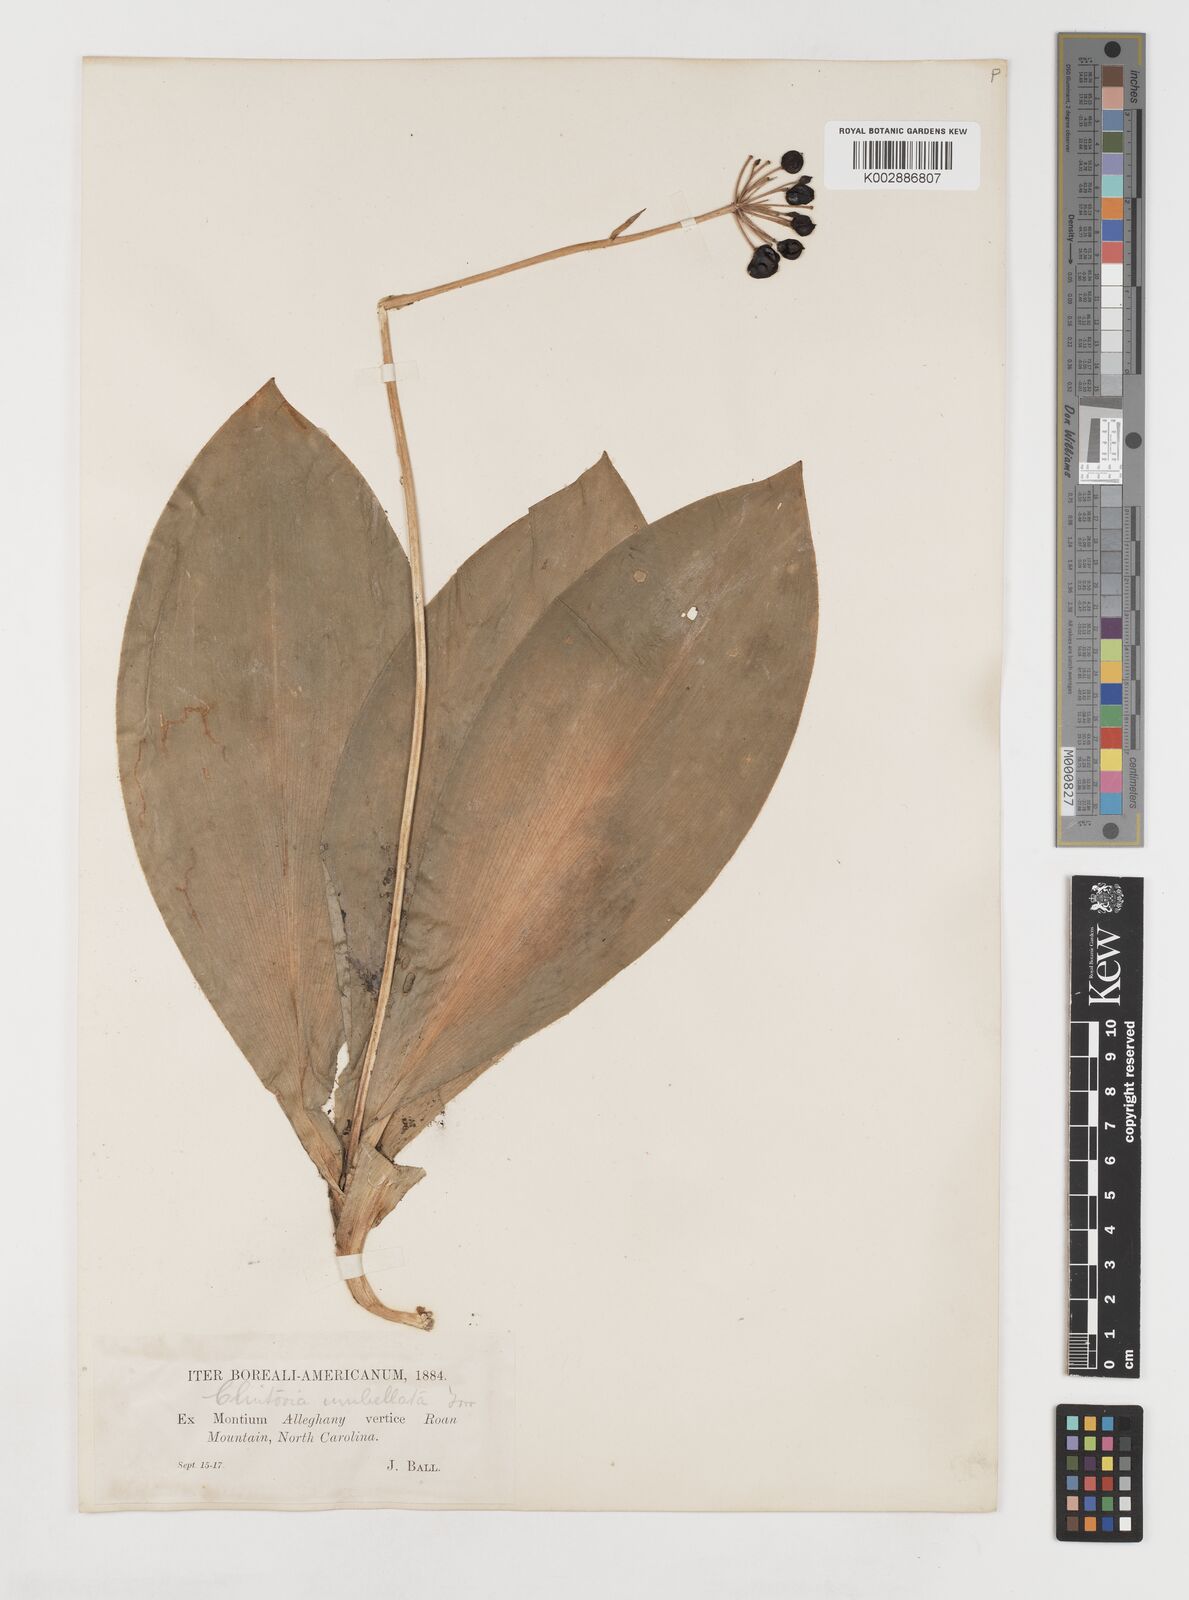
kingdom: Plantae
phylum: Tracheophyta
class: Liliopsida
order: Liliales
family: Liliaceae
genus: Clintonia
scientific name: Clintonia umbellulata
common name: Speckle wood-lily
